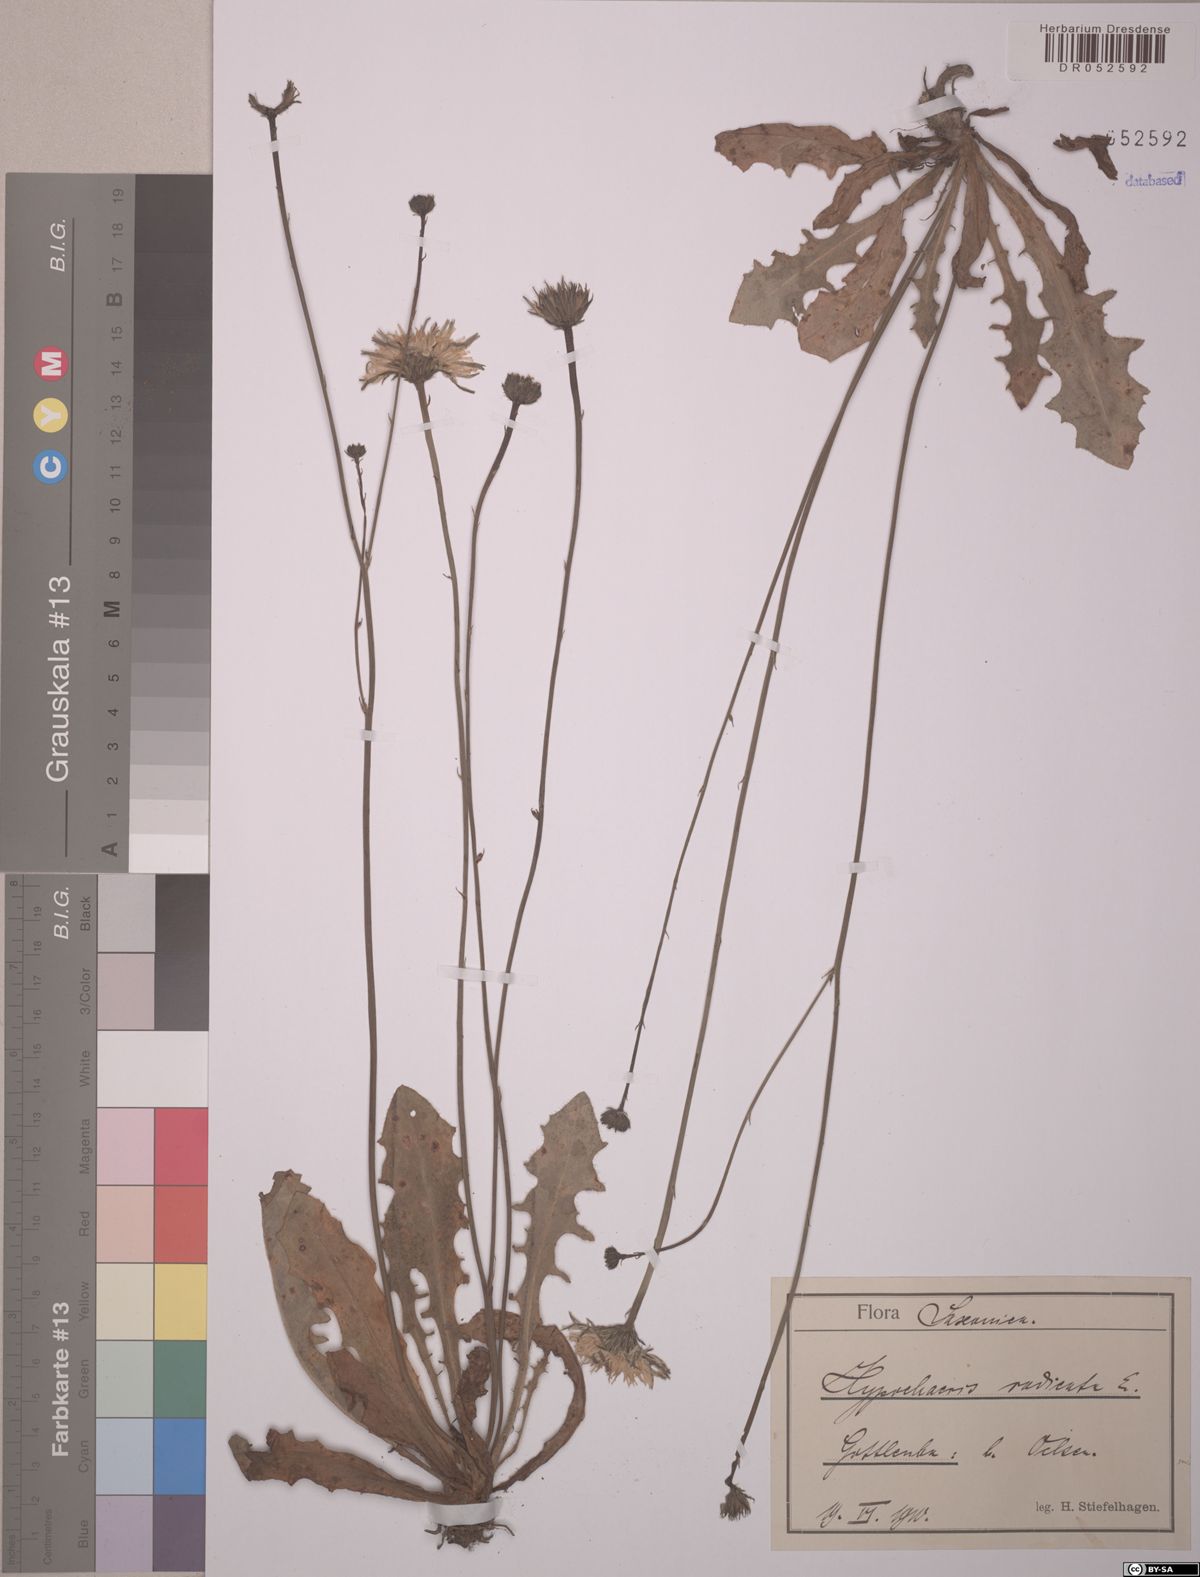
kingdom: Plantae
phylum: Tracheophyta
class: Magnoliopsida
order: Asterales
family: Asteraceae
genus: Hypochaeris
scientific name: Hypochaeris radicata
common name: Flatweed
